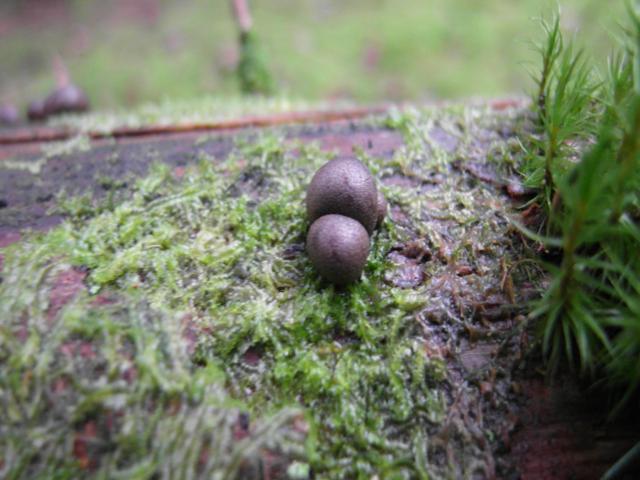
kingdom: Protozoa
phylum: Mycetozoa
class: Myxomycetes
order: Cribrariales
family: Tubiferaceae
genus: Lycogala
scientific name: Lycogala epidendrum
